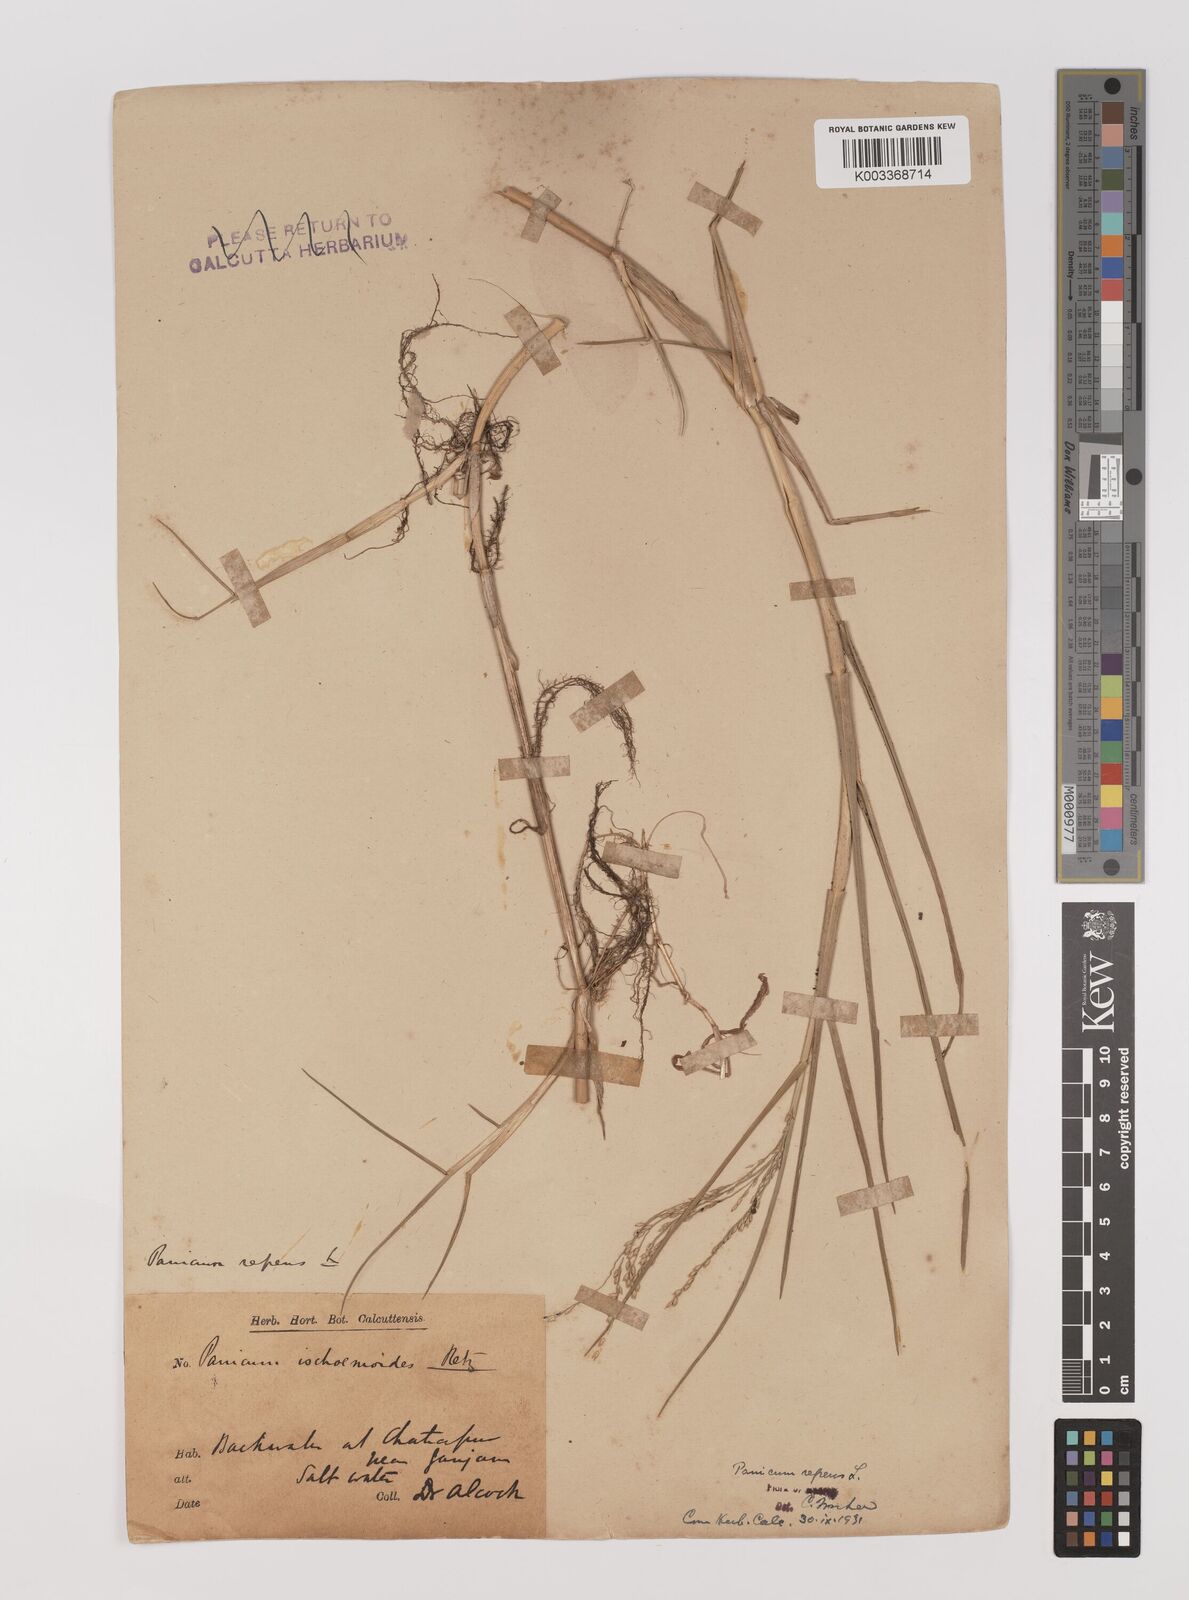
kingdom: Plantae
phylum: Tracheophyta
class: Liliopsida
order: Poales
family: Poaceae
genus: Panicum
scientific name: Panicum repens
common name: Torpedo grass
